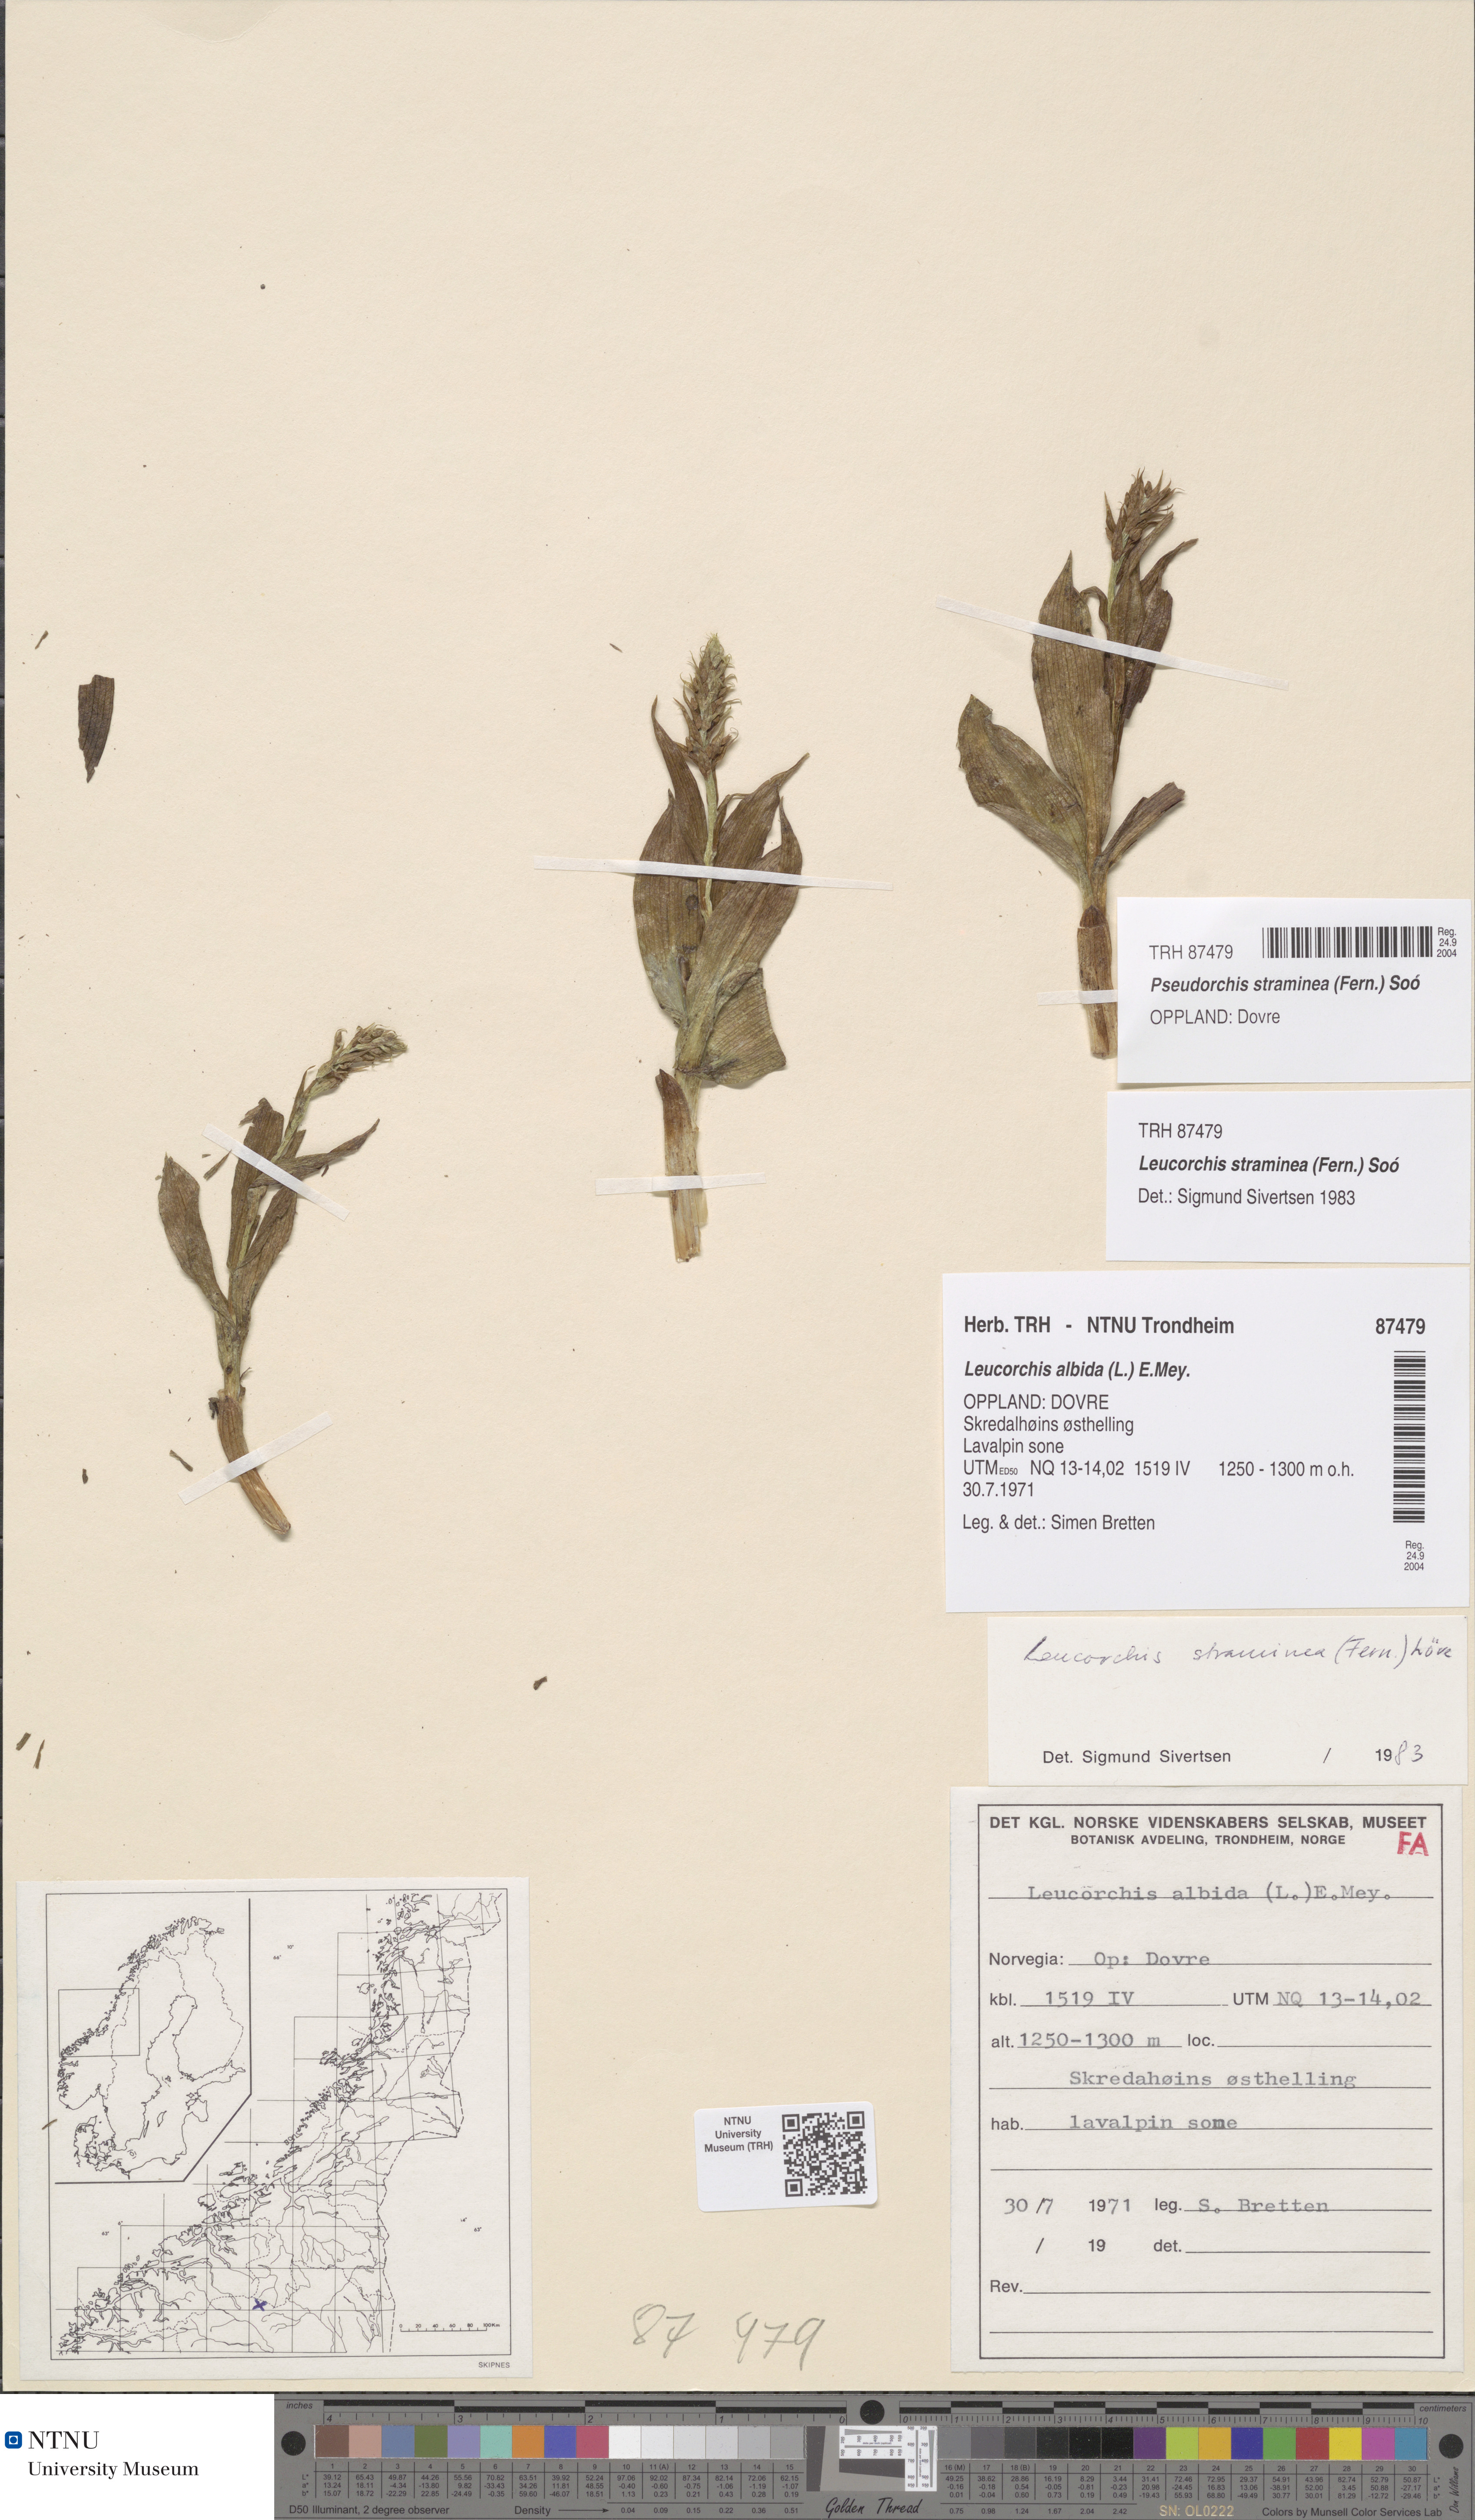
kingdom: Plantae
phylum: Tracheophyta
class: Liliopsida
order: Asparagales
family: Orchidaceae
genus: Pseudorchis
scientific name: Pseudorchis straminea
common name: Vanilla-scented bog orchid
